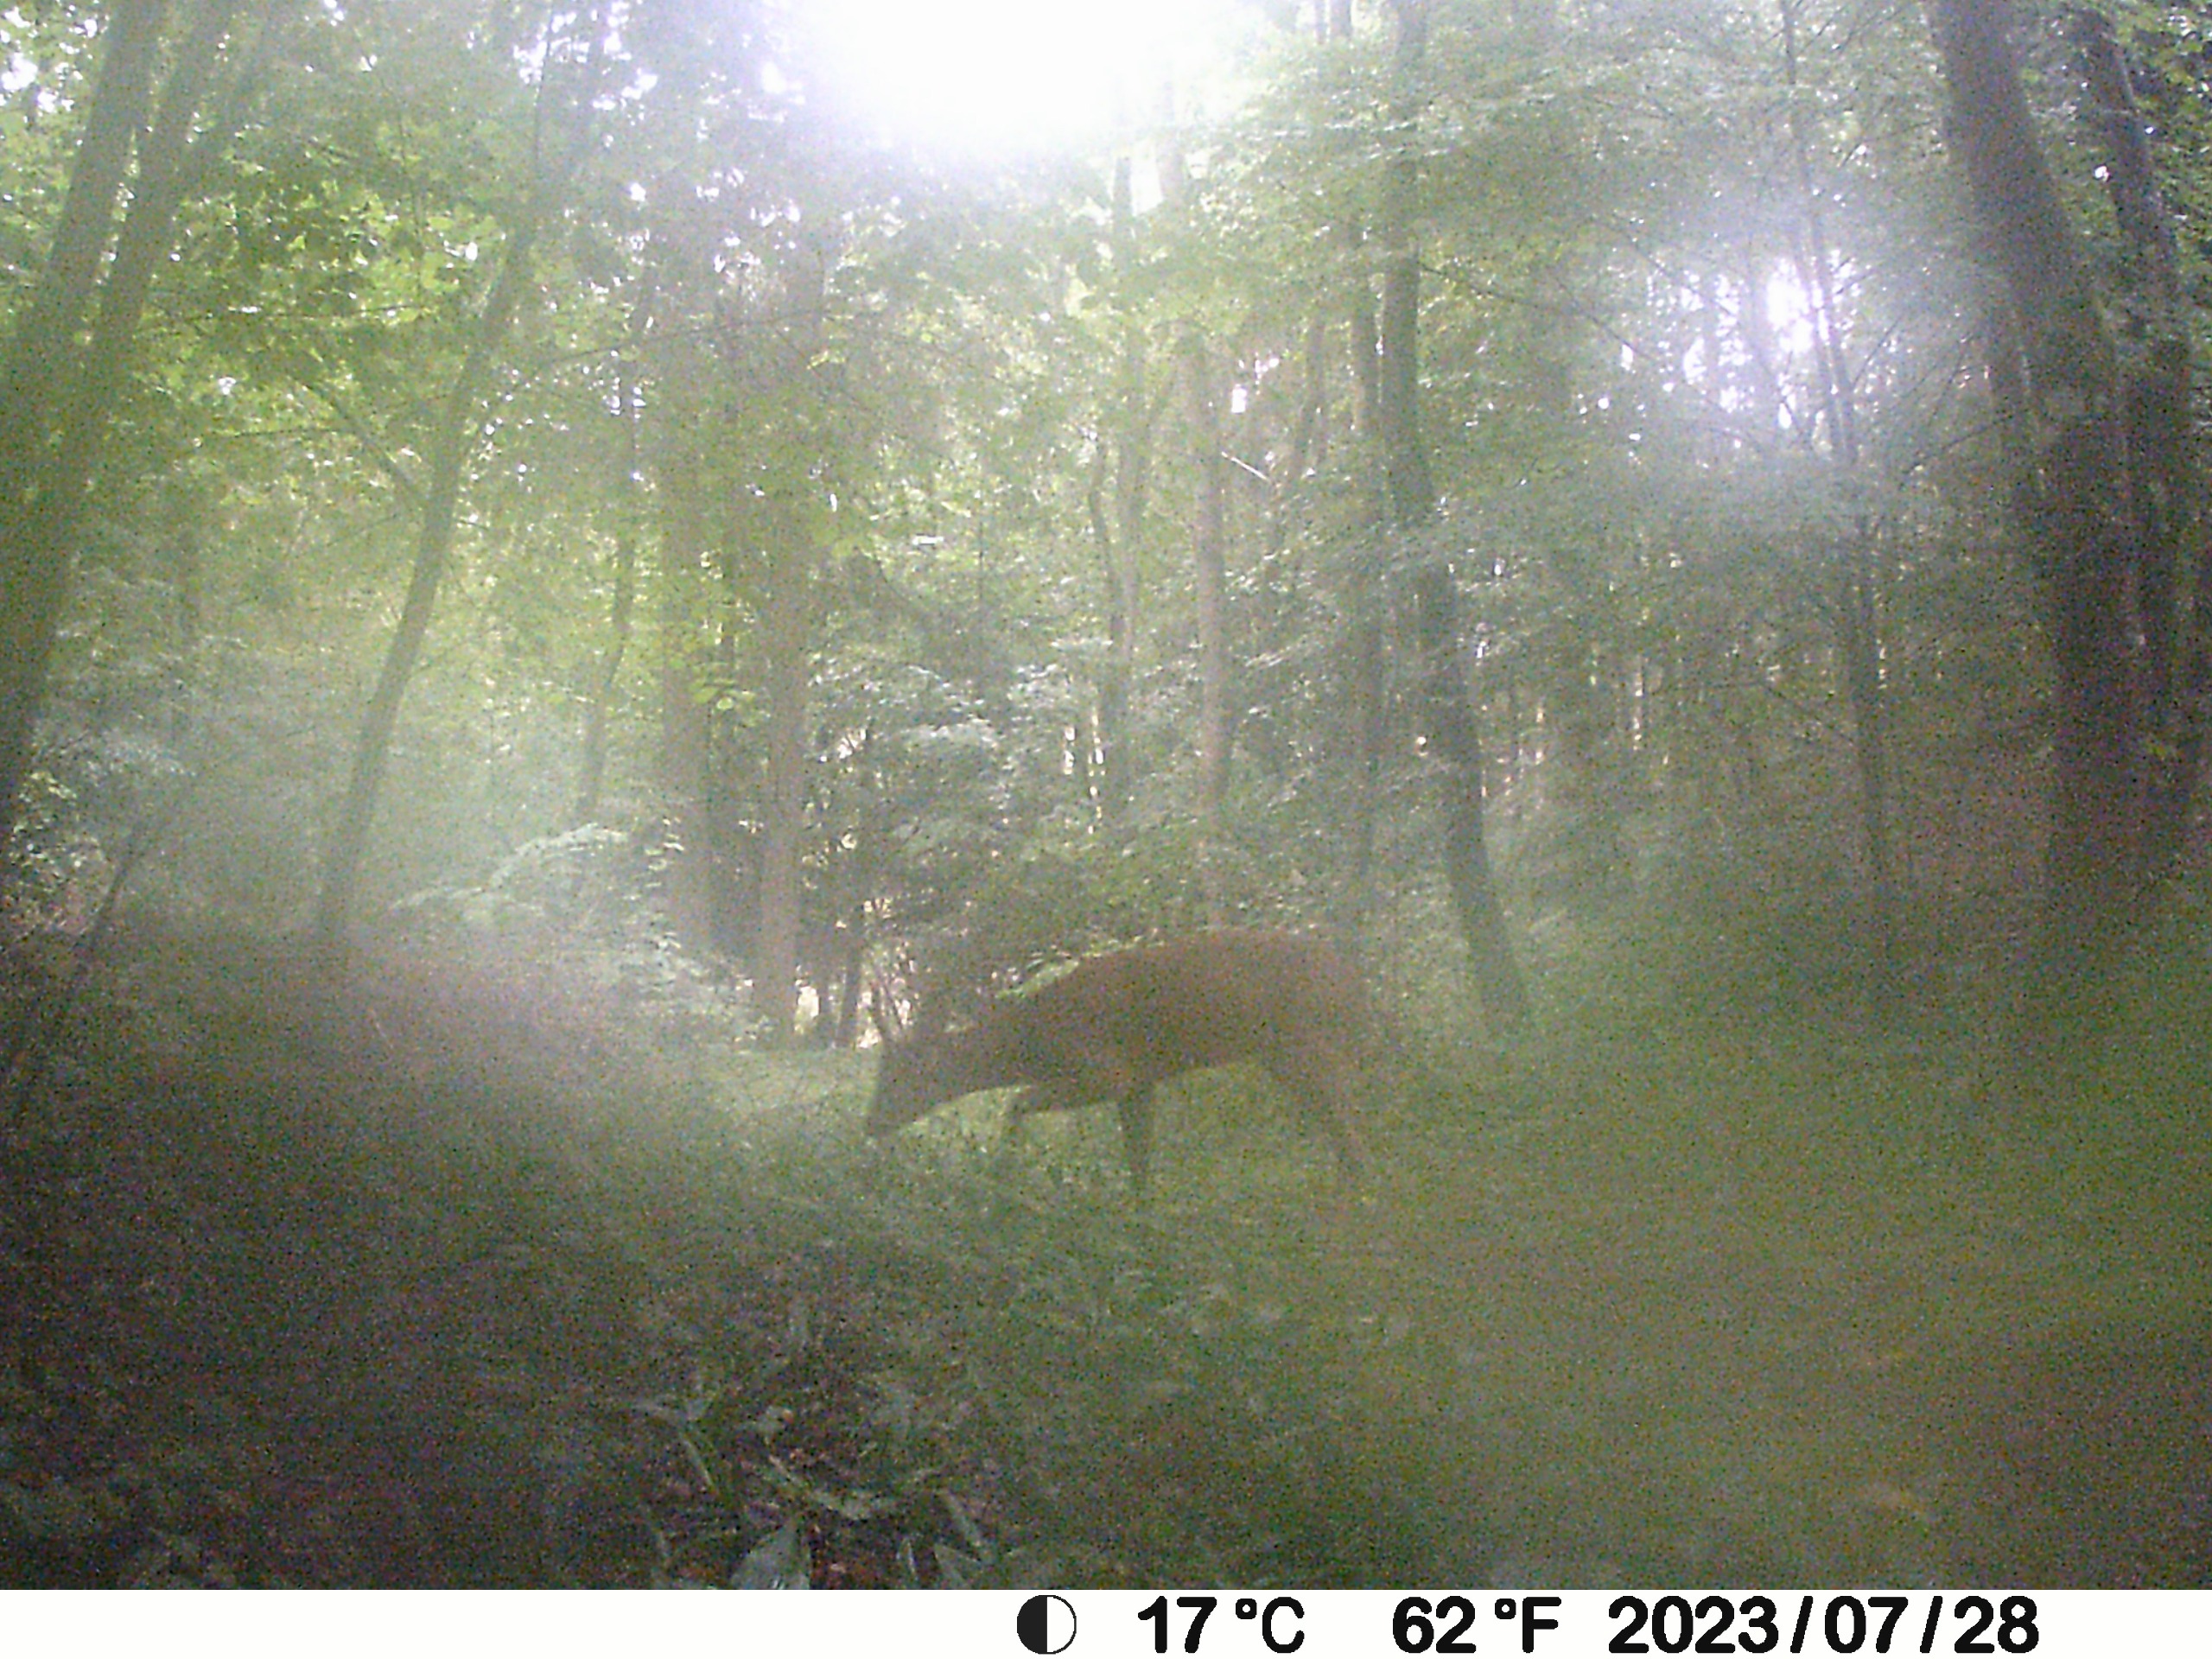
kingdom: Animalia
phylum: Chordata
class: Mammalia
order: Artiodactyla
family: Cervidae
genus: Capreolus
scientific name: Capreolus capreolus
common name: Rådyr
